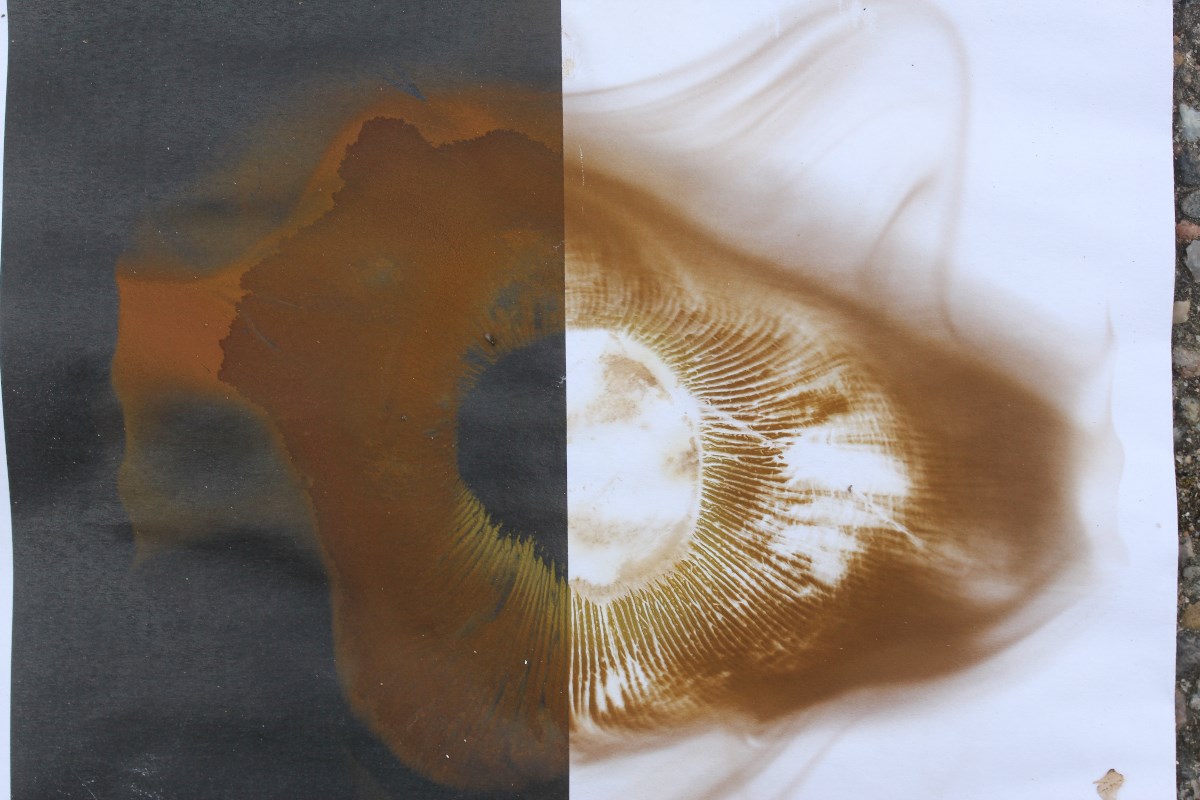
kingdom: Fungi
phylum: Basidiomycota
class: Agaricomycetes
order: Boletales
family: Paxillaceae
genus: Paxillus
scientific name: Paxillus ammoniavirescens
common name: olivensporet netbladhat
